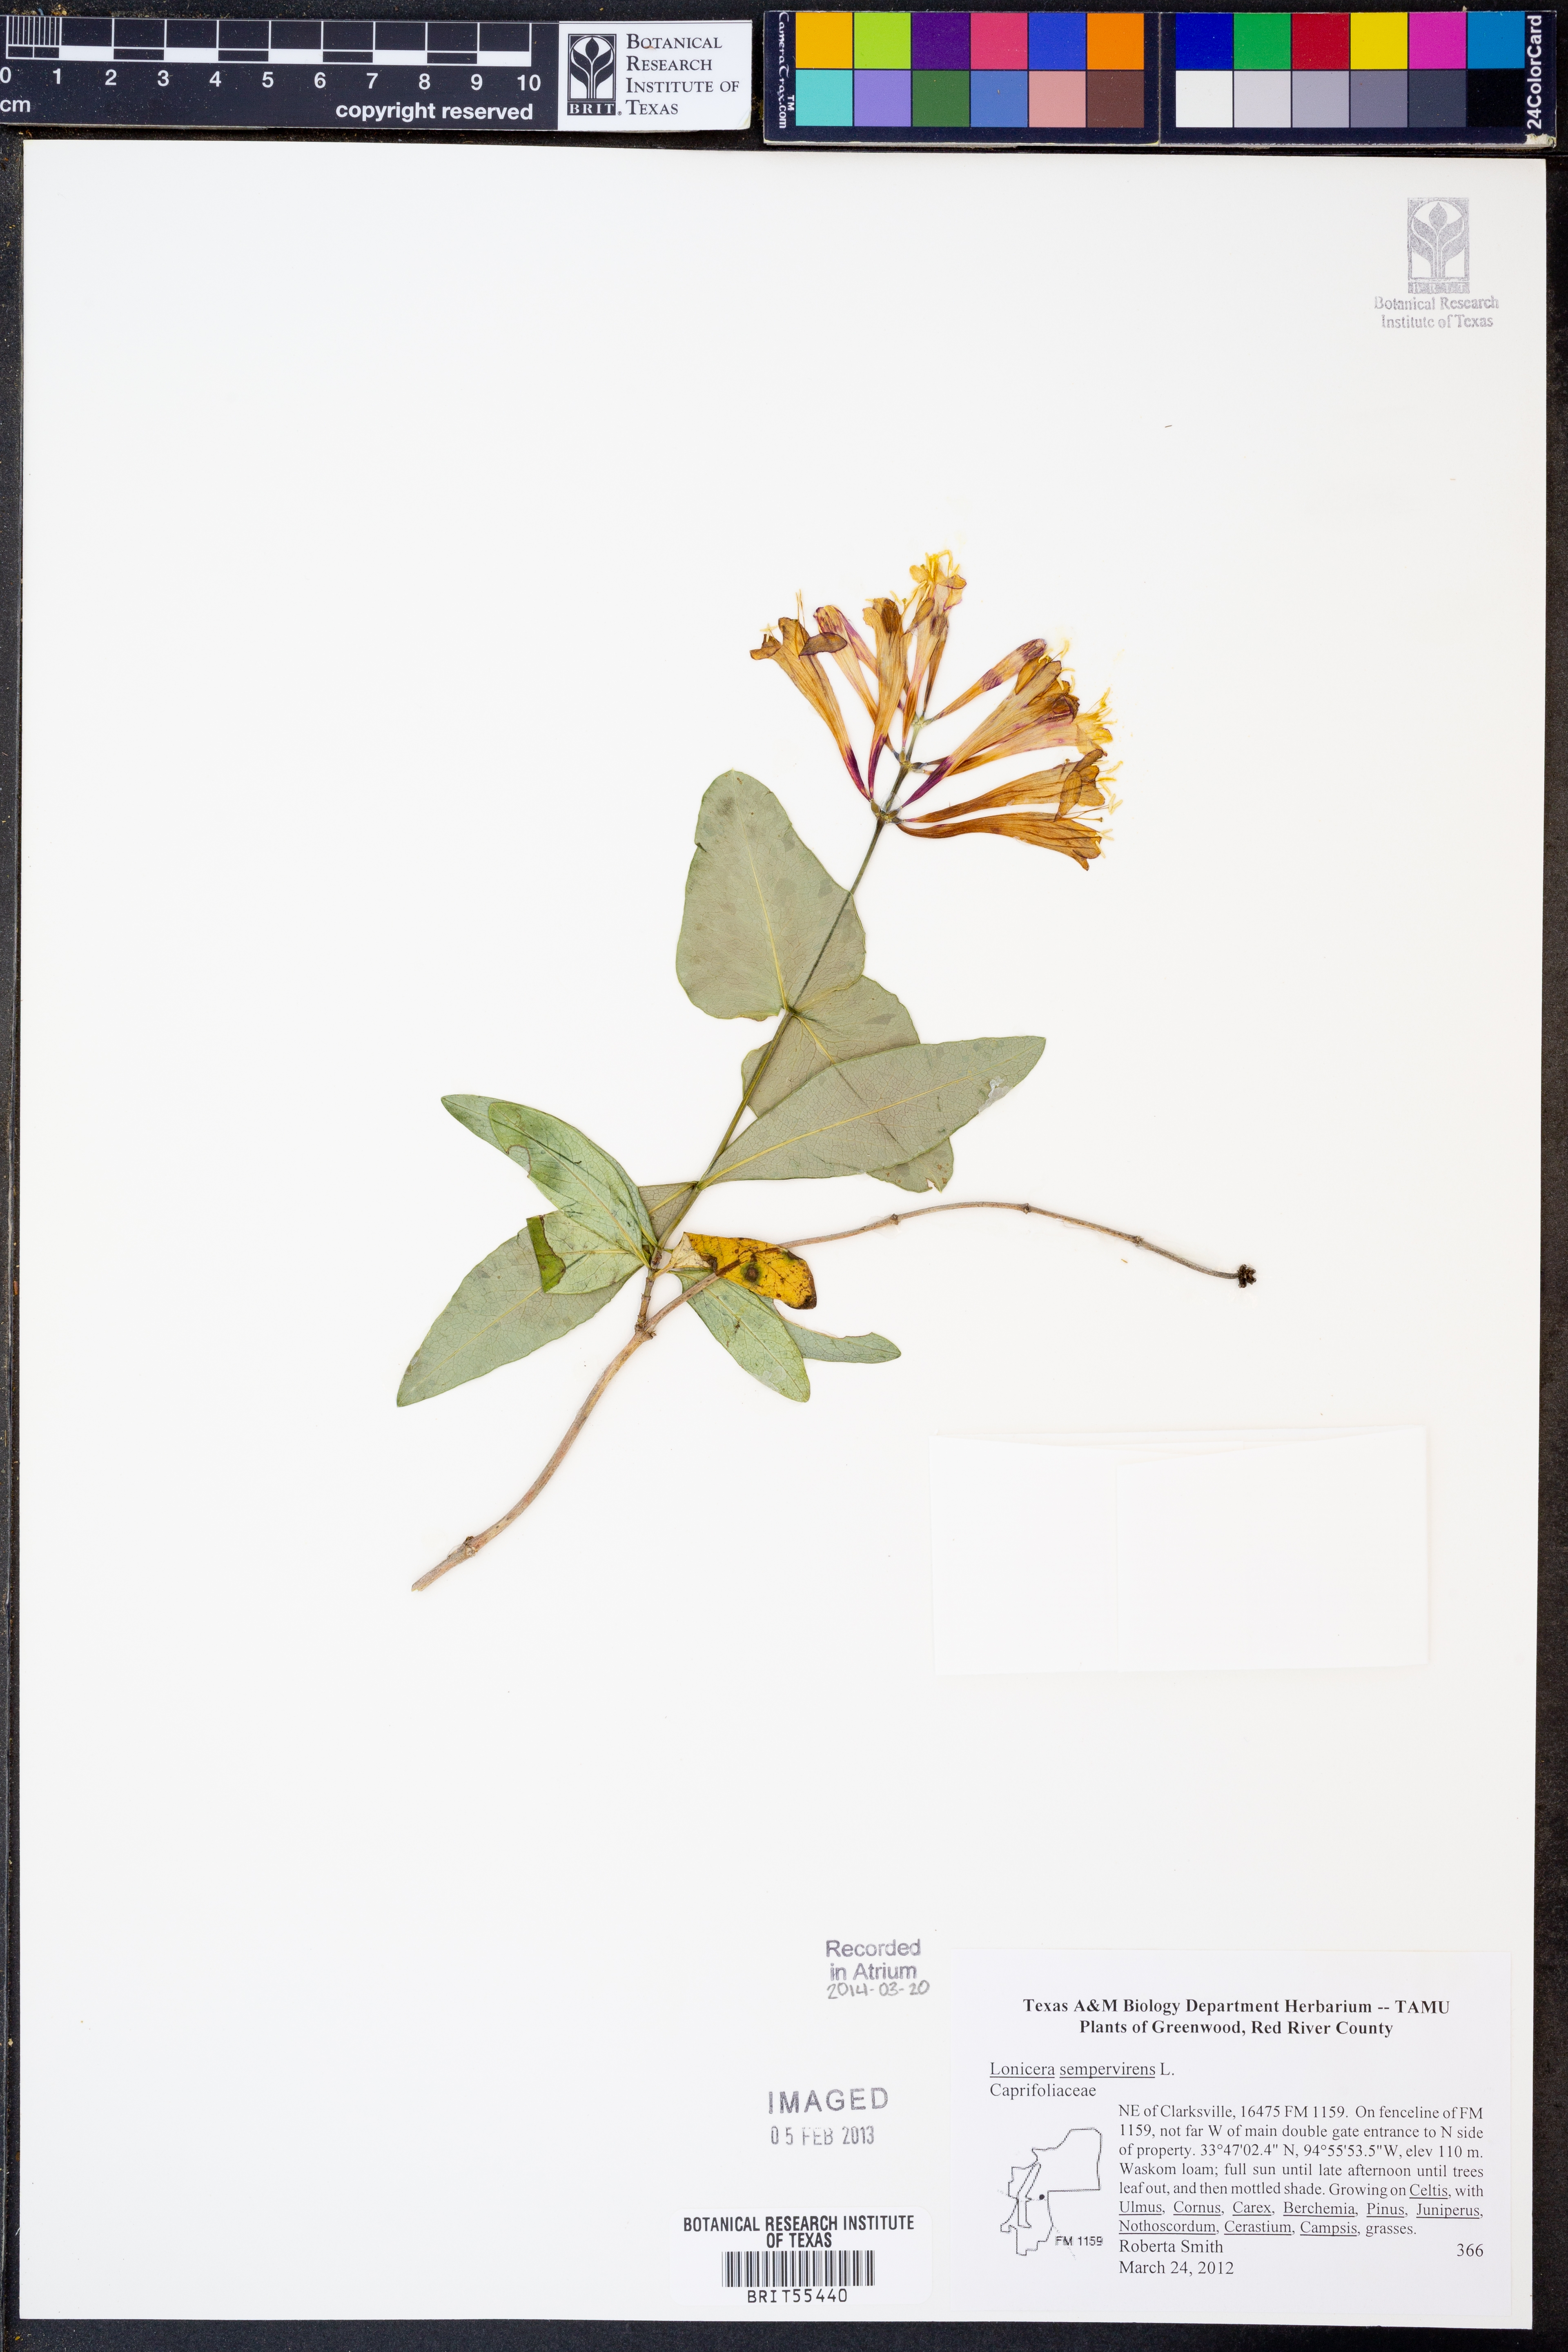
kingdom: Plantae
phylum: Tracheophyta
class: Magnoliopsida
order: Dipsacales
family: Caprifoliaceae
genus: Lonicera
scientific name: Lonicera sempervirens
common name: Coral honeysuckle
